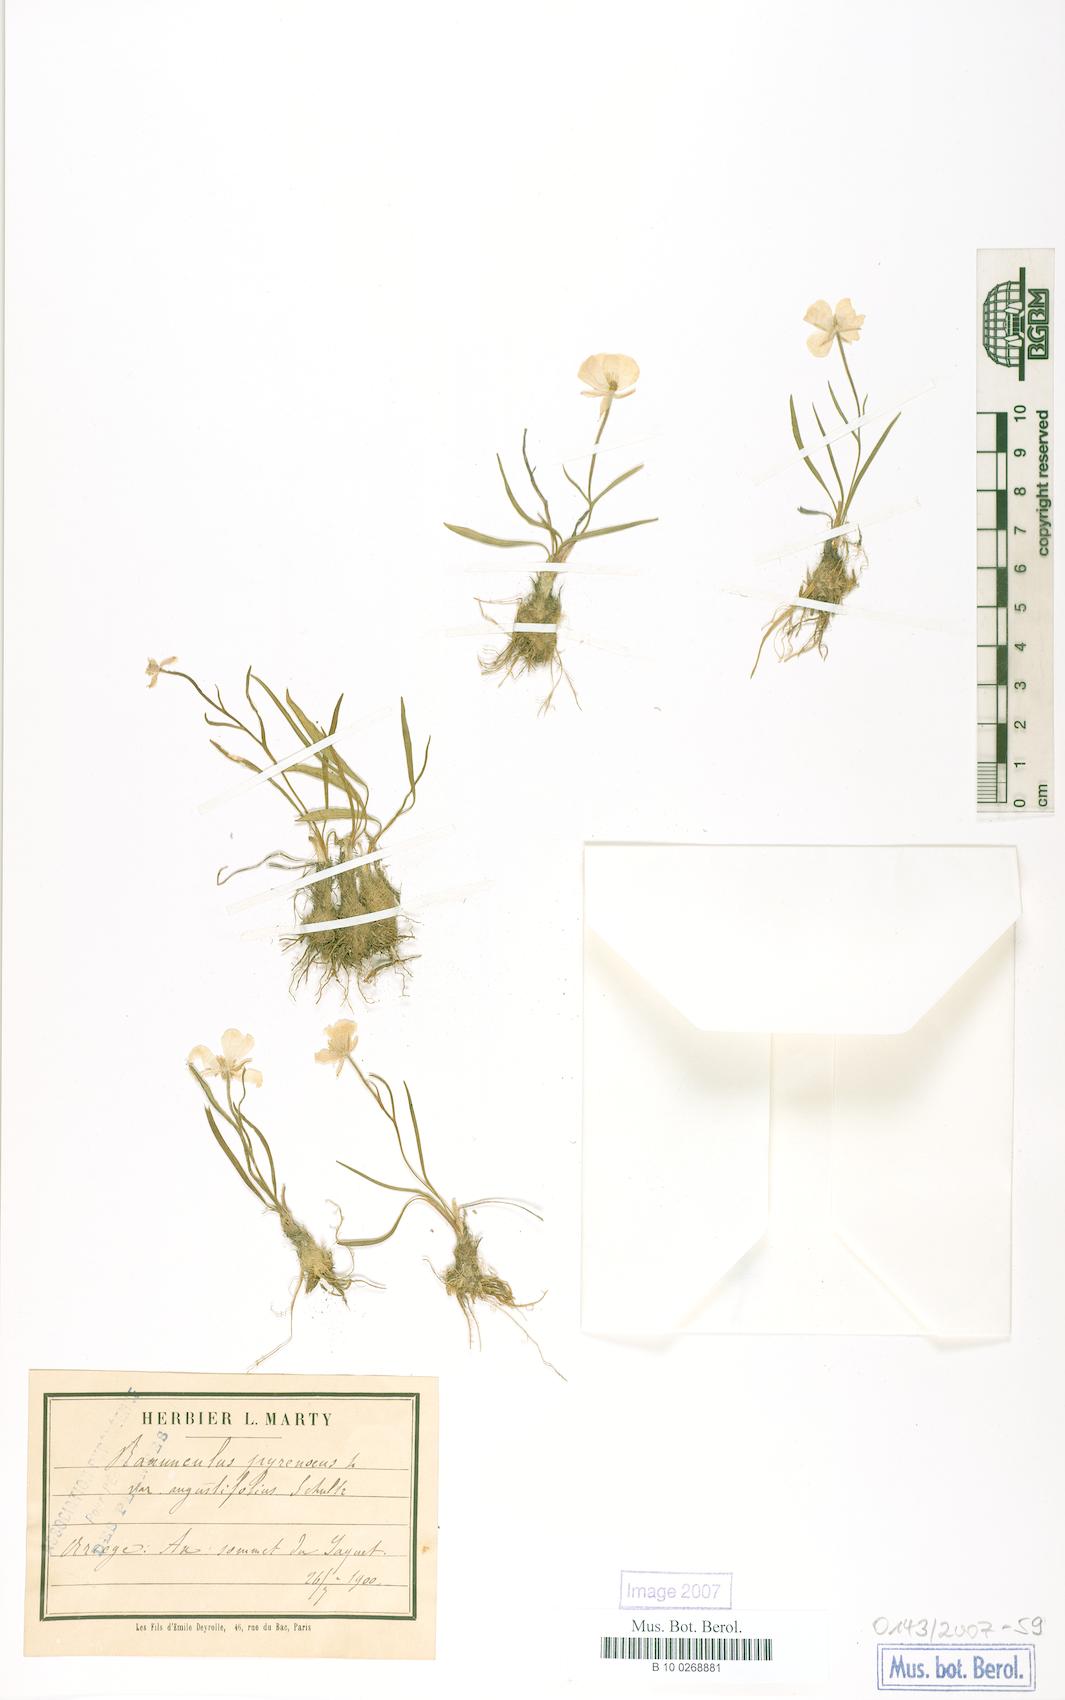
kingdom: Plantae
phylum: Tracheophyta
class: Magnoliopsida
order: Ranunculales
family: Ranunculaceae
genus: Ranunculus
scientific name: Ranunculus angustifolius
